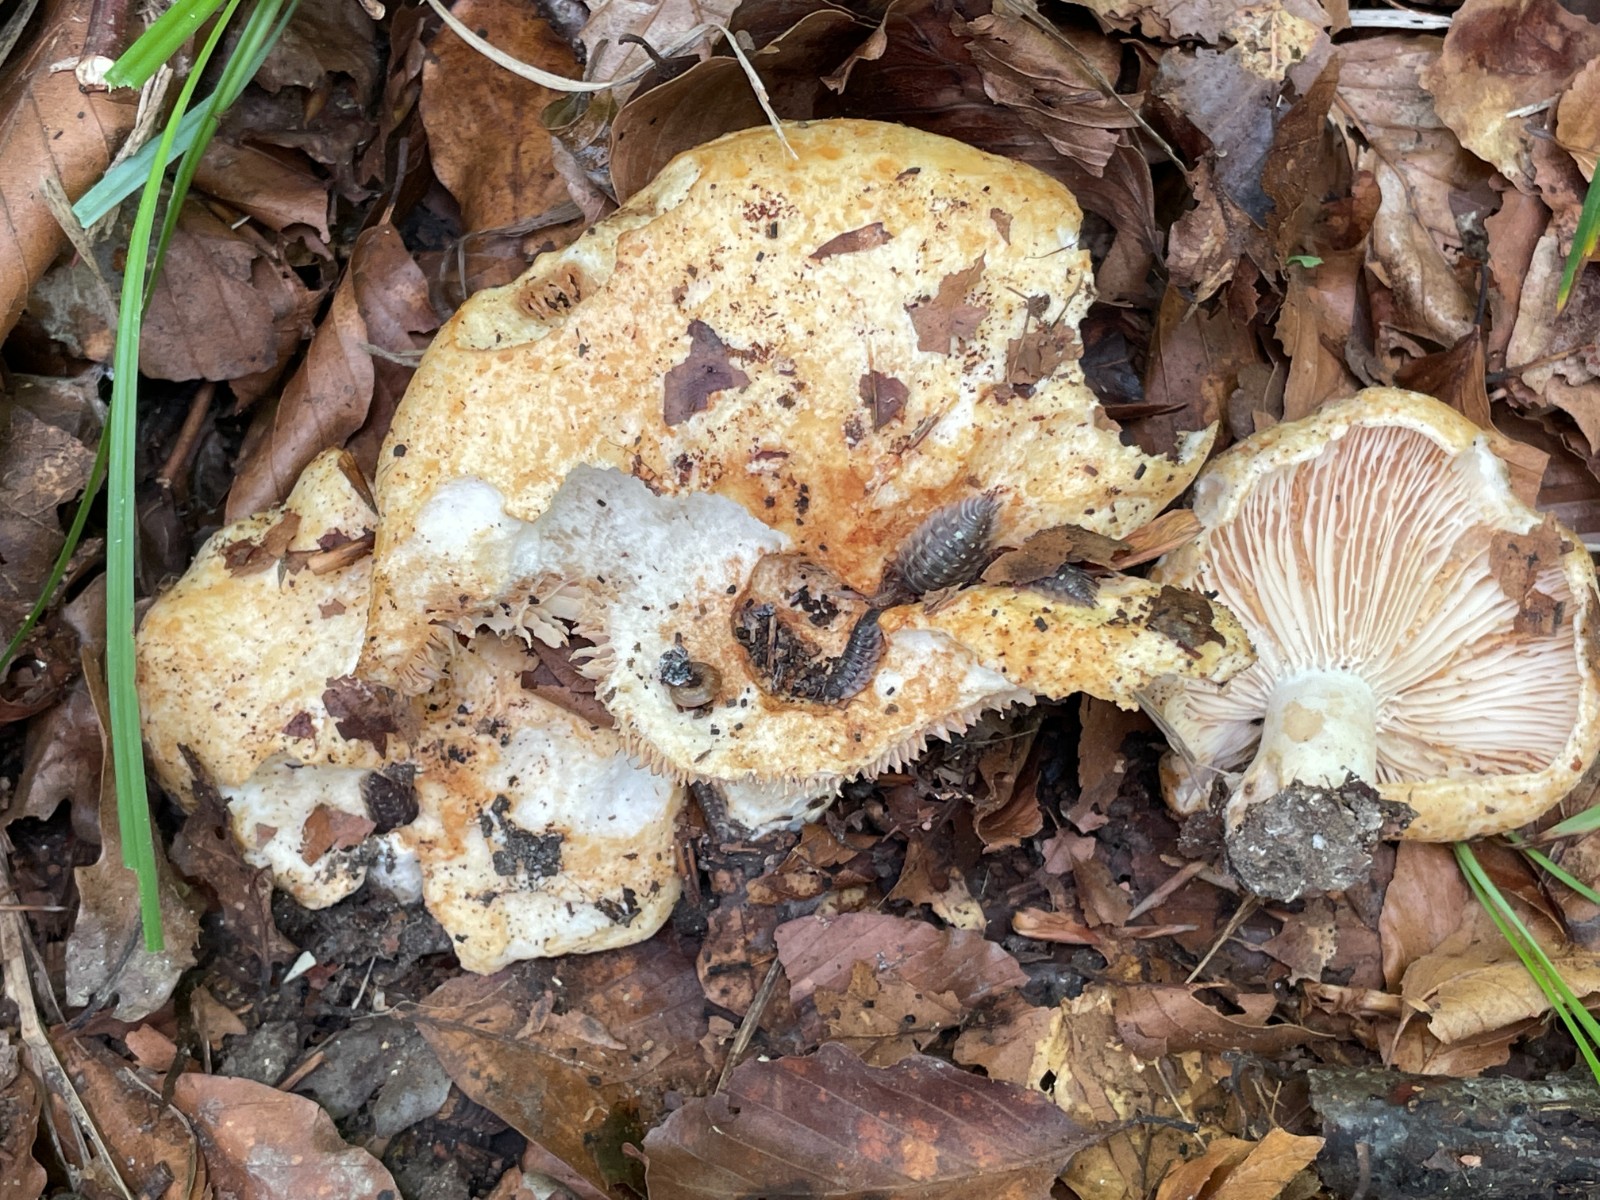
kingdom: Fungi
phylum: Basidiomycota
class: Agaricomycetes
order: Russulales
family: Russulaceae
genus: Lactarius
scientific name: Lactarius acerrimus
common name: brændende mælkehat
